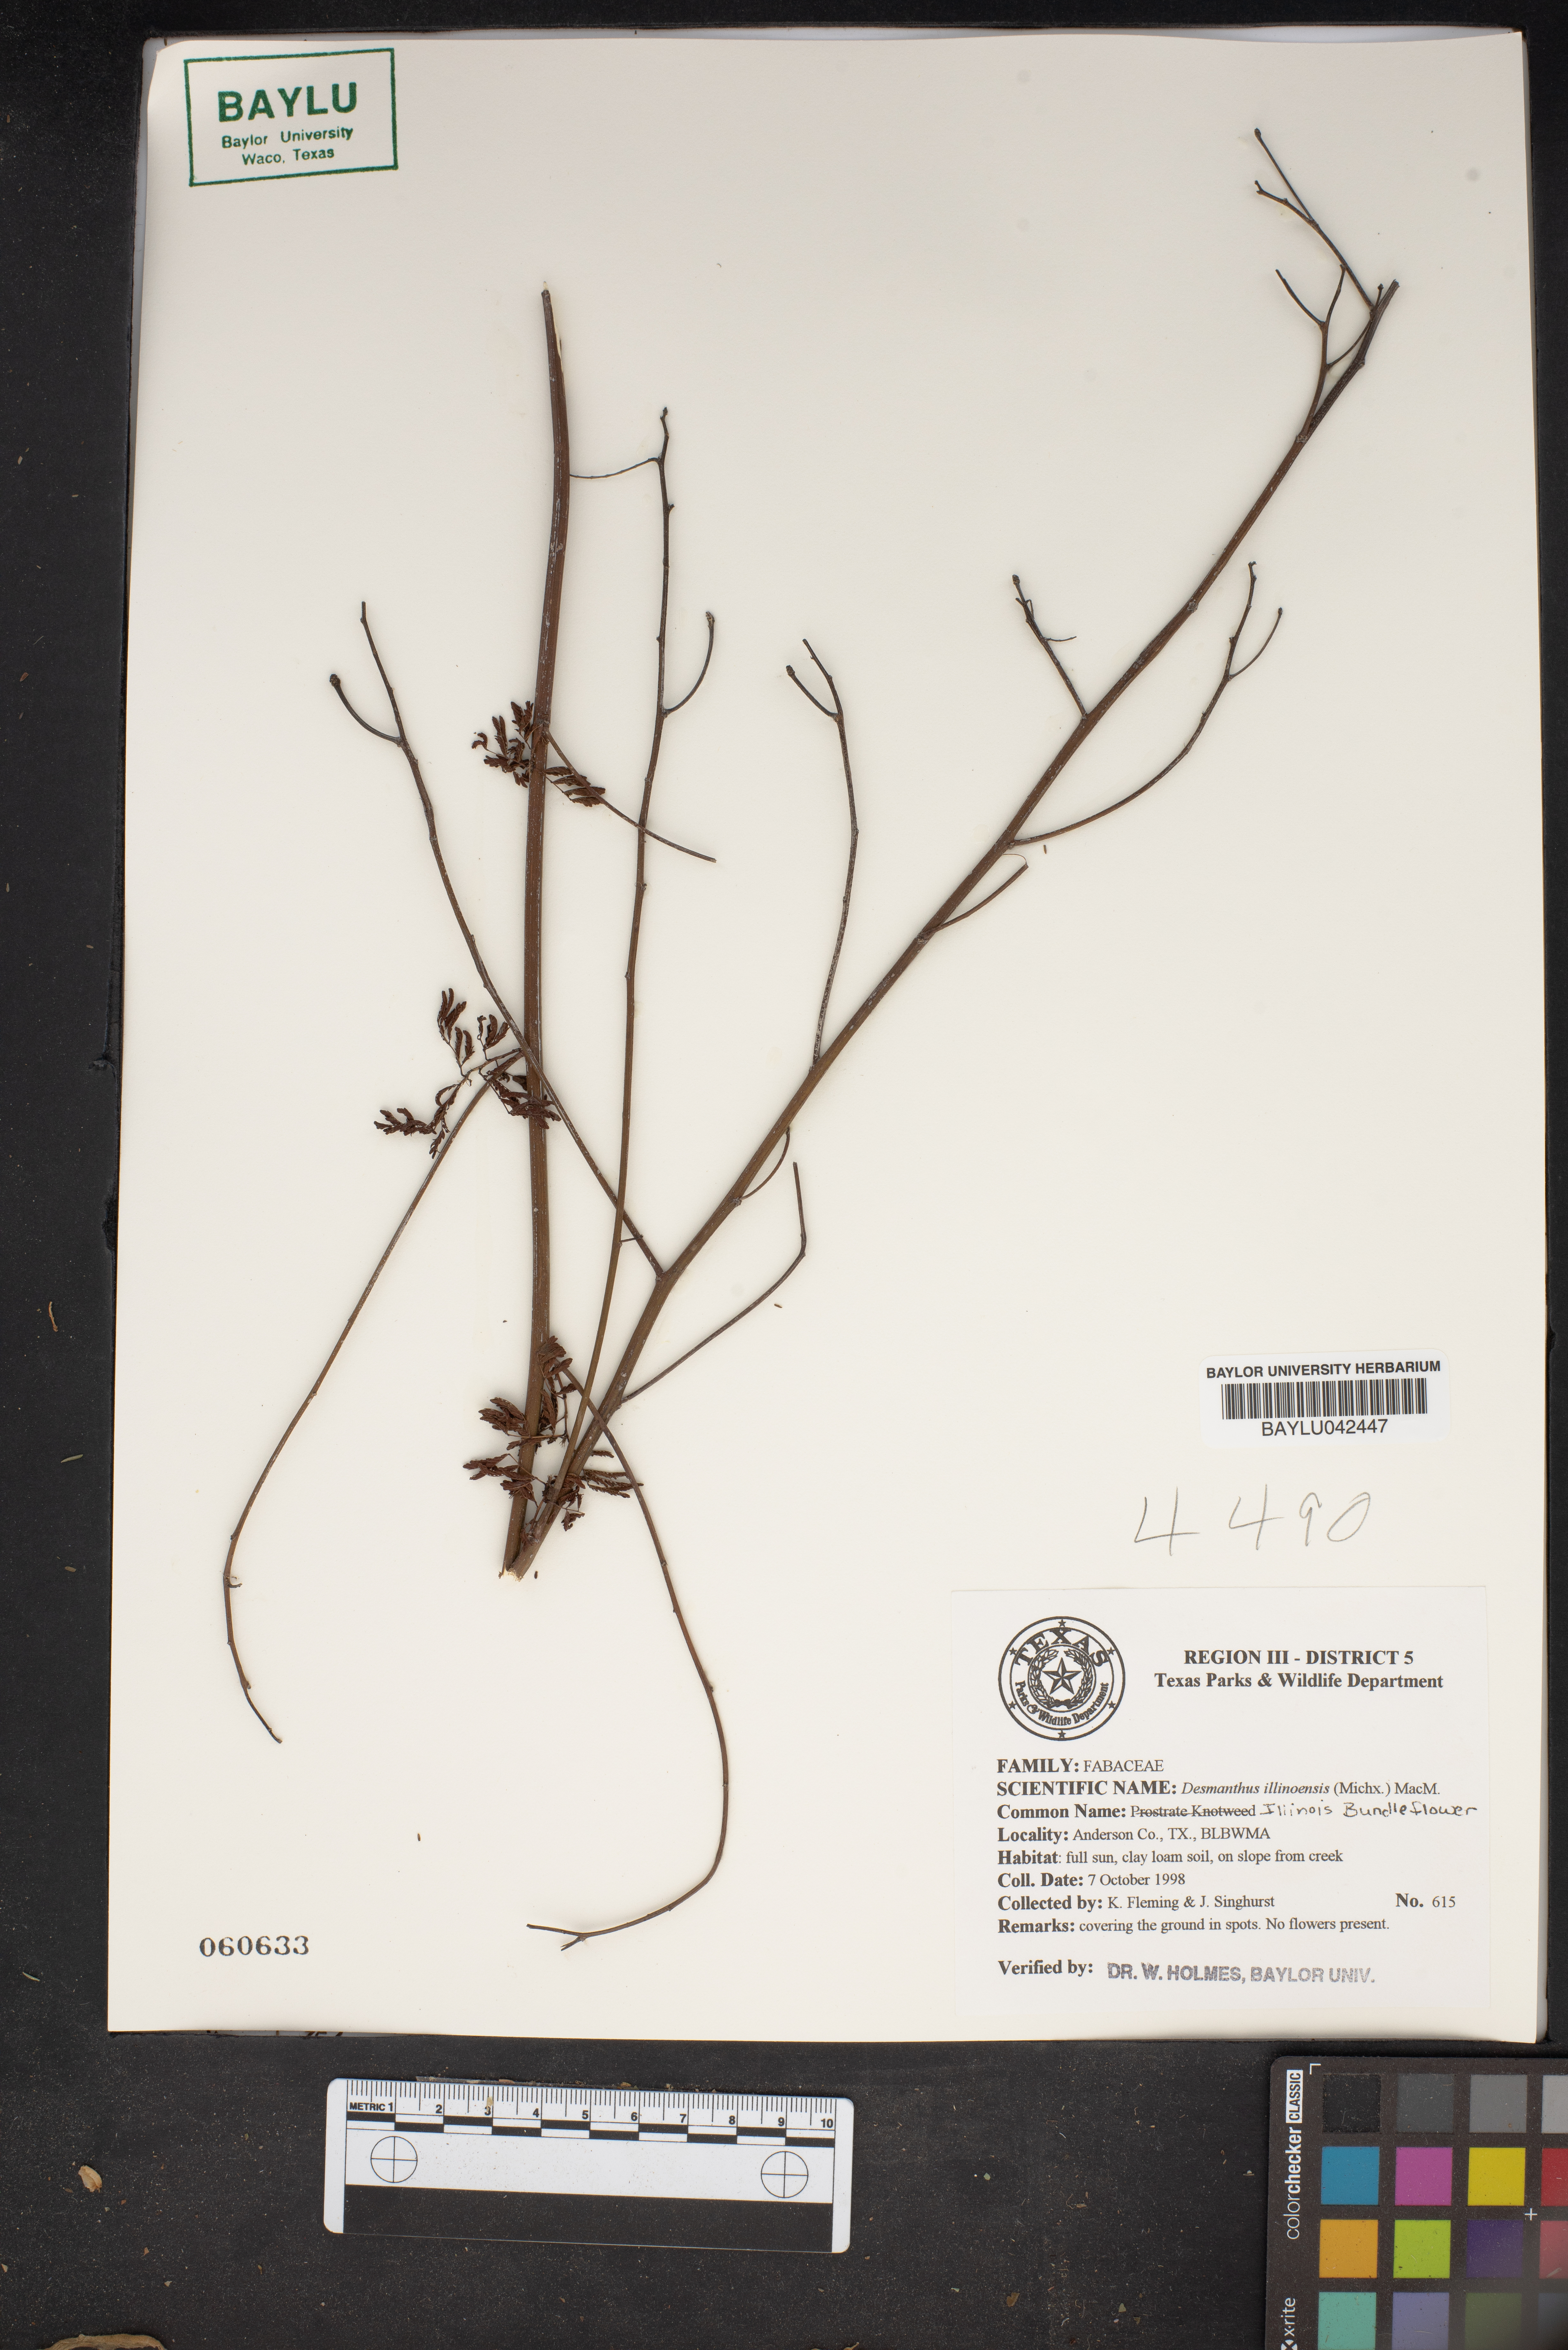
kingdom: Plantae
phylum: Tracheophyta
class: Magnoliopsida
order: Fabales
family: Fabaceae
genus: Desmanthus
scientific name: Desmanthus illinoensis
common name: Illinois bundle-flower
